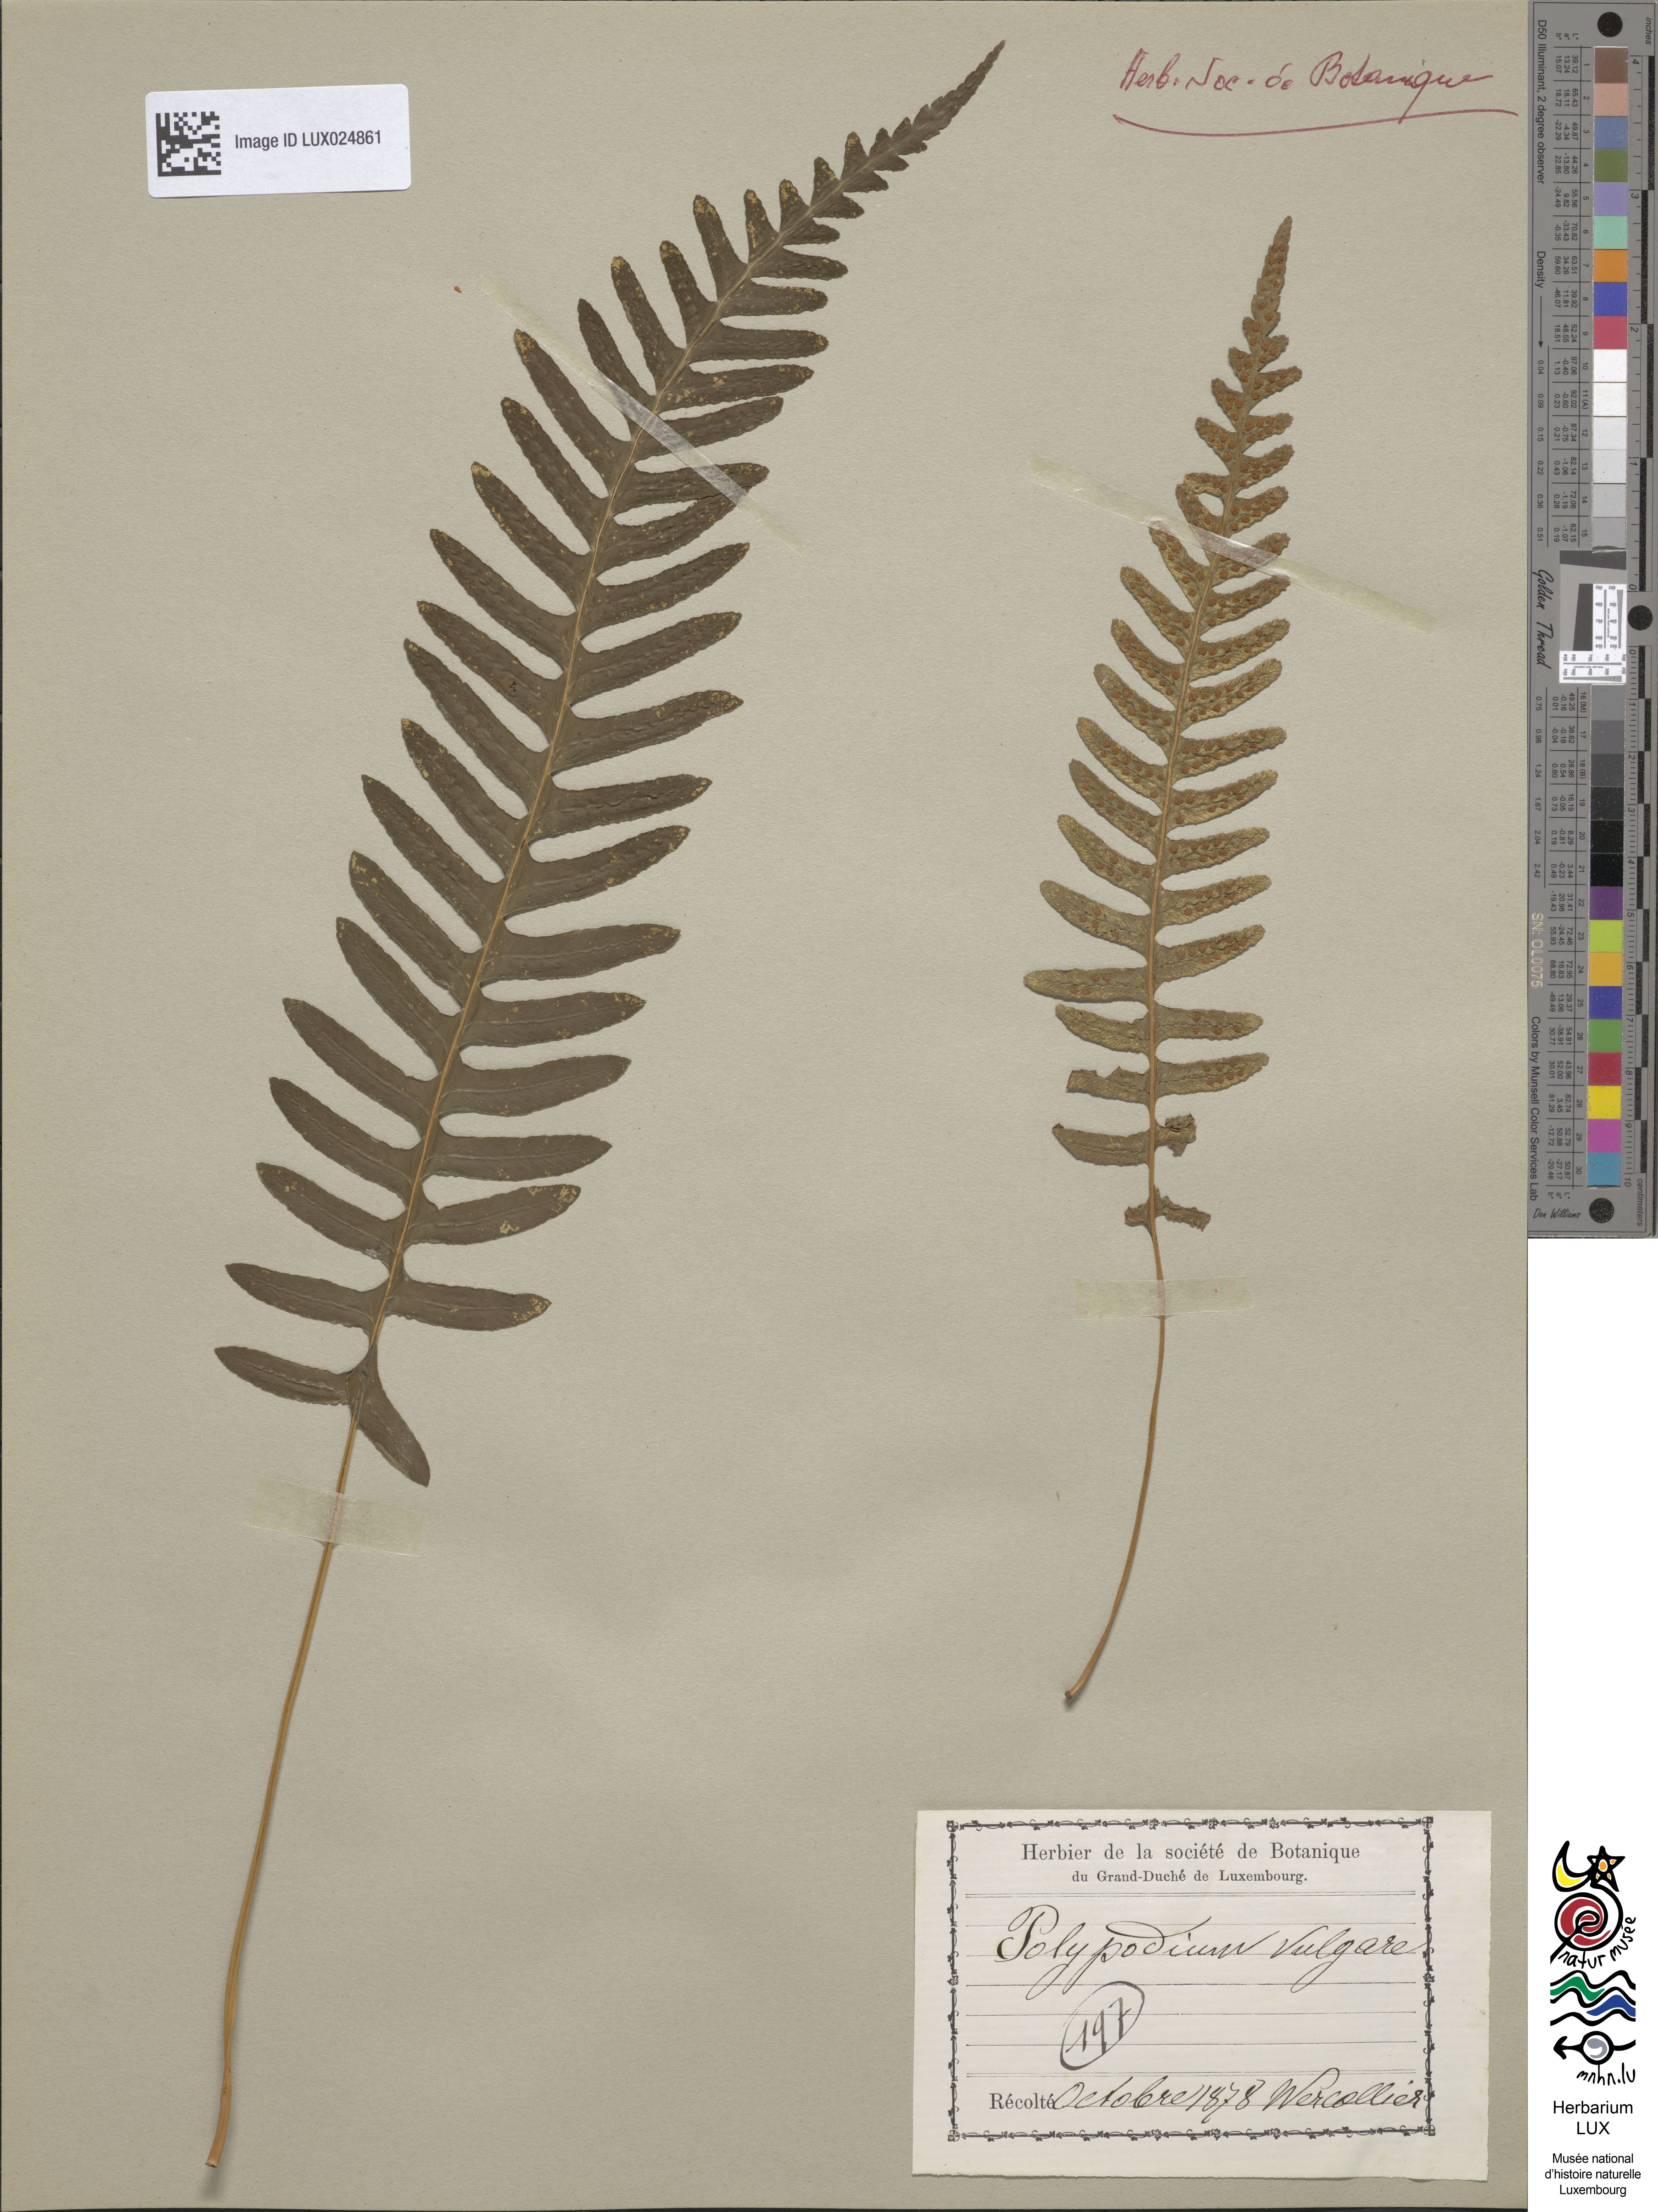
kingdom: Plantae
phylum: Tracheophyta
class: Polypodiopsida
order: Polypodiales
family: Polypodiaceae
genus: Polypodium
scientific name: Polypodium vulgare
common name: Common polypody
